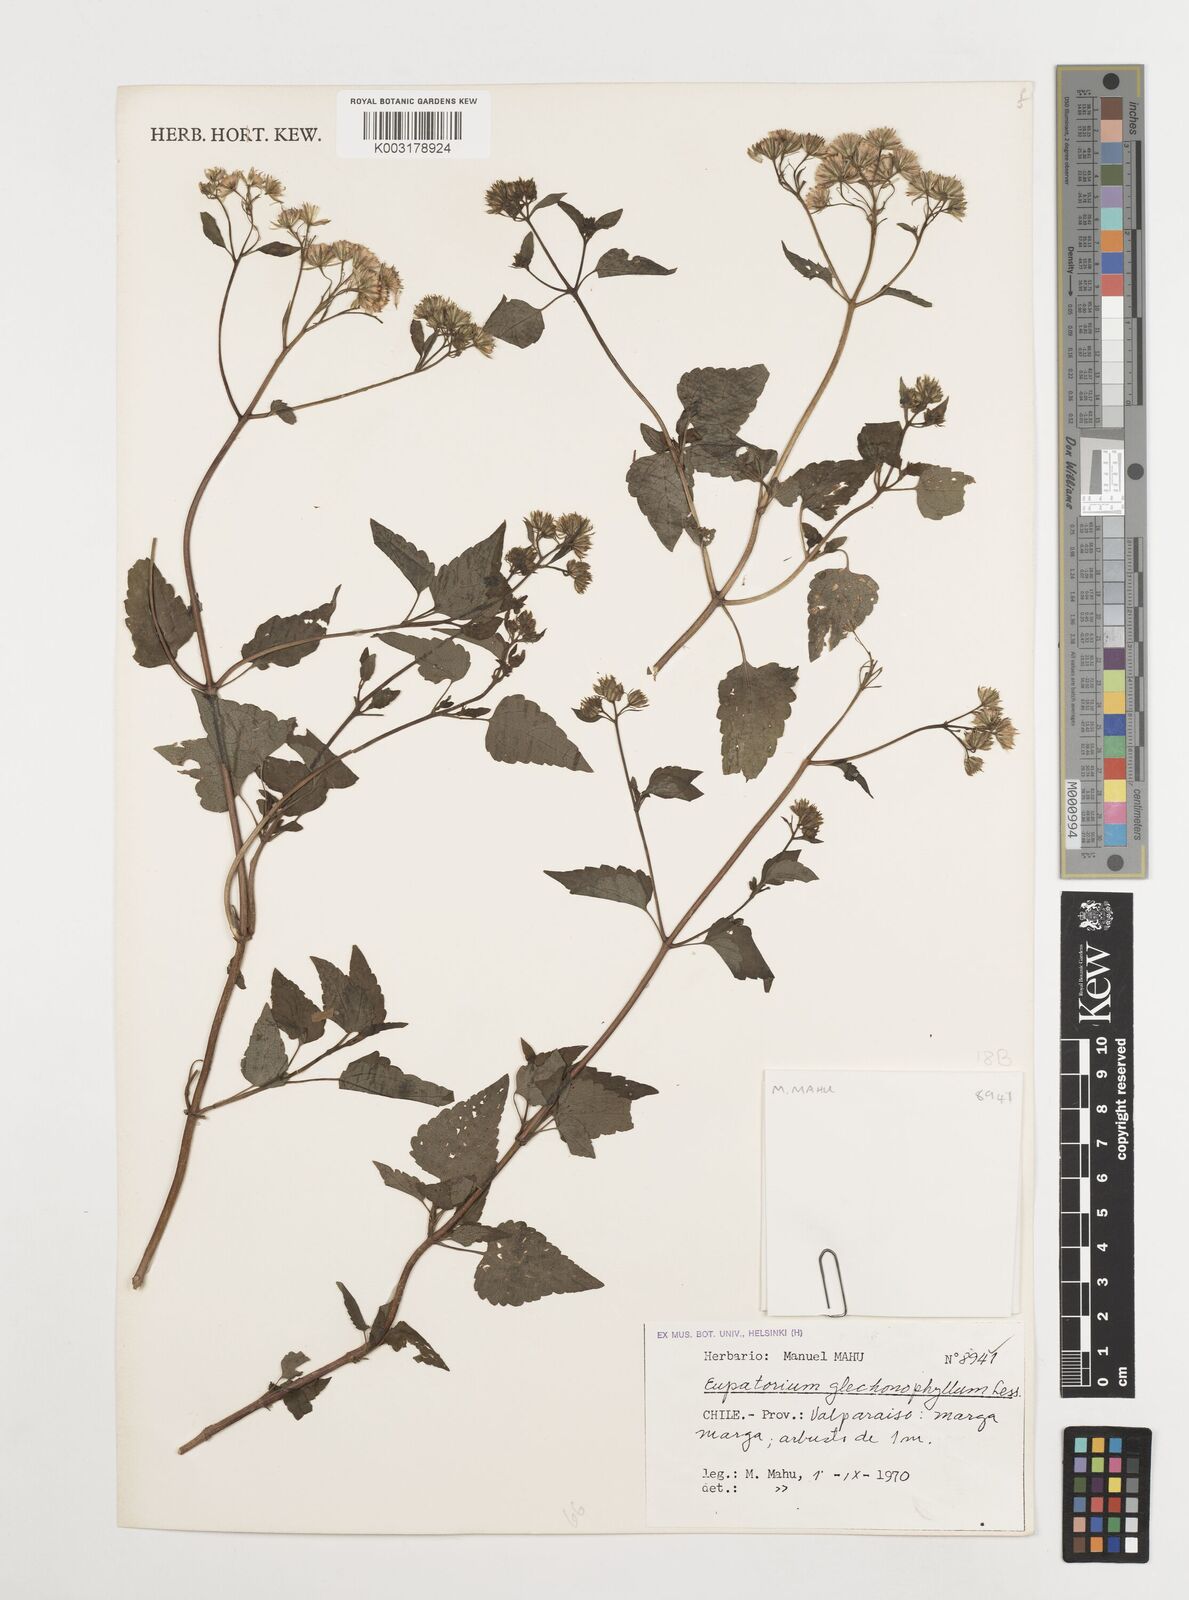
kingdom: Plantae
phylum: Tracheophyta
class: Magnoliopsida
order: Asterales
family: Asteraceae
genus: Ageratina
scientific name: Ageratina glechonophylla
